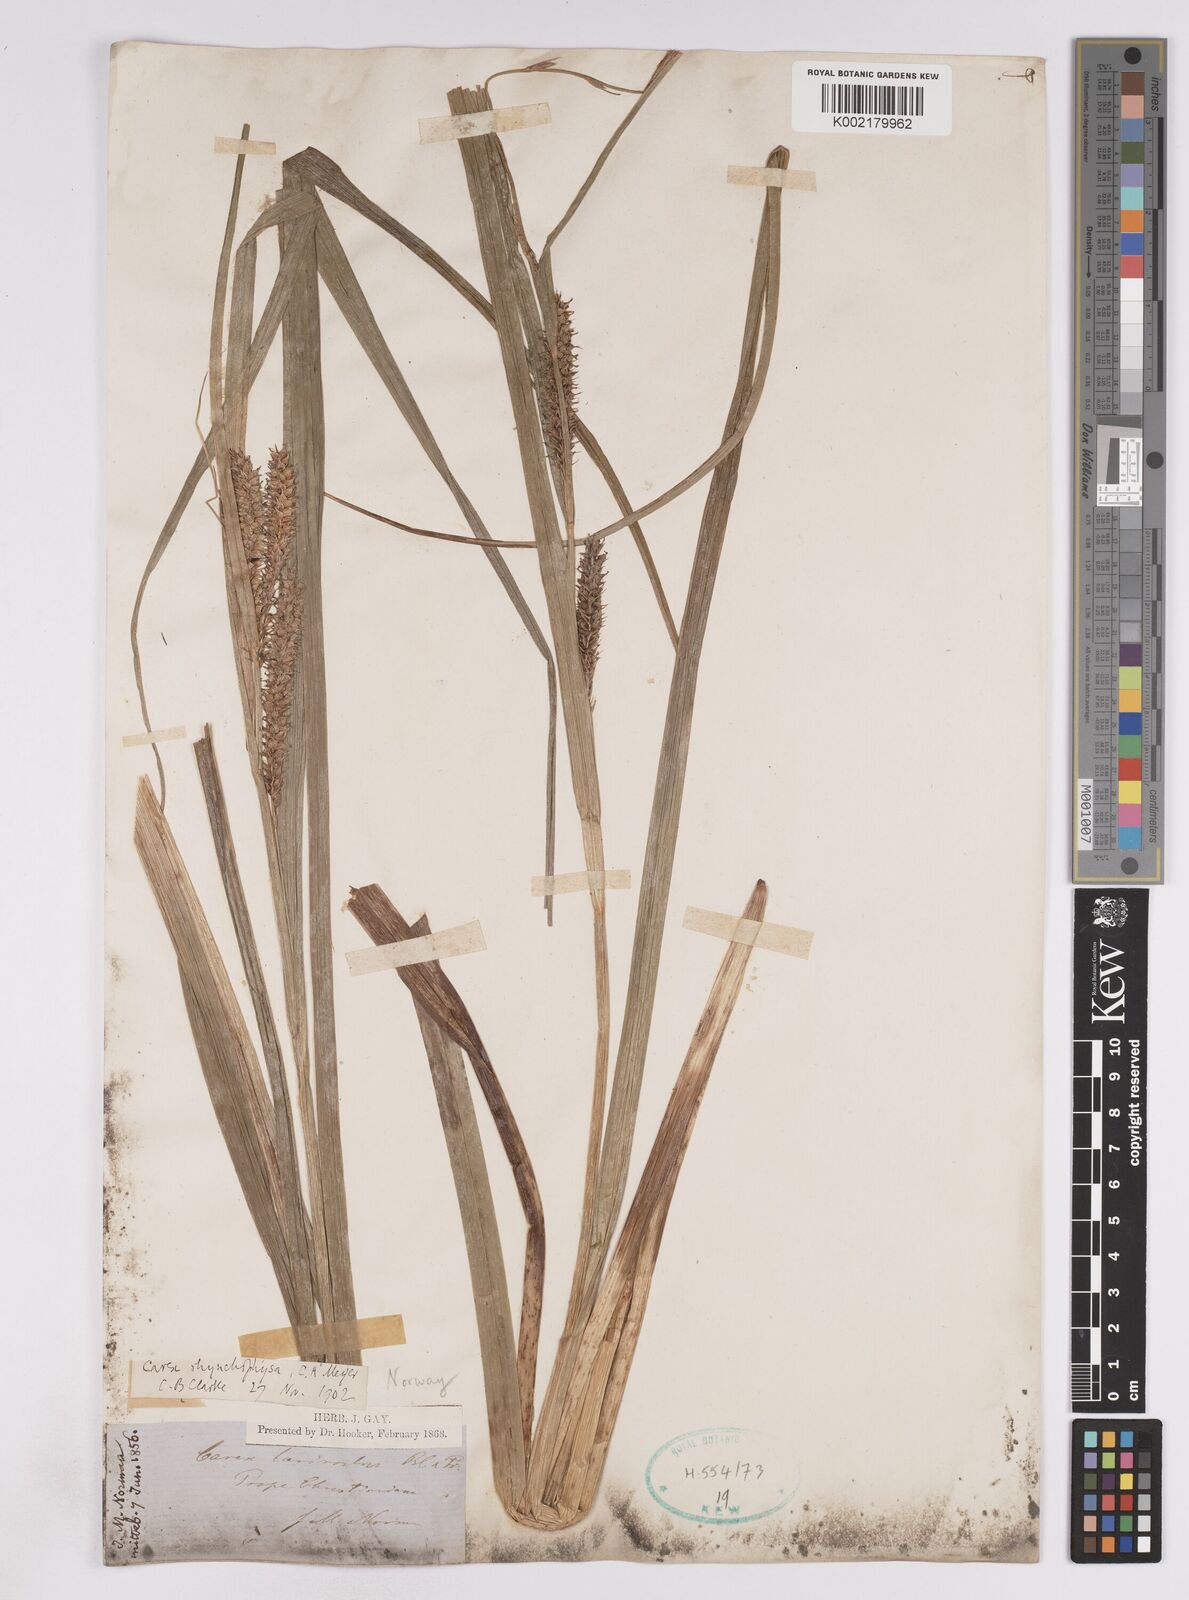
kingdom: Plantae
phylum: Tracheophyta
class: Liliopsida
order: Poales
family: Cyperaceae
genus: Carex
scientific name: Carex utriculata
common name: Beaked sedge
